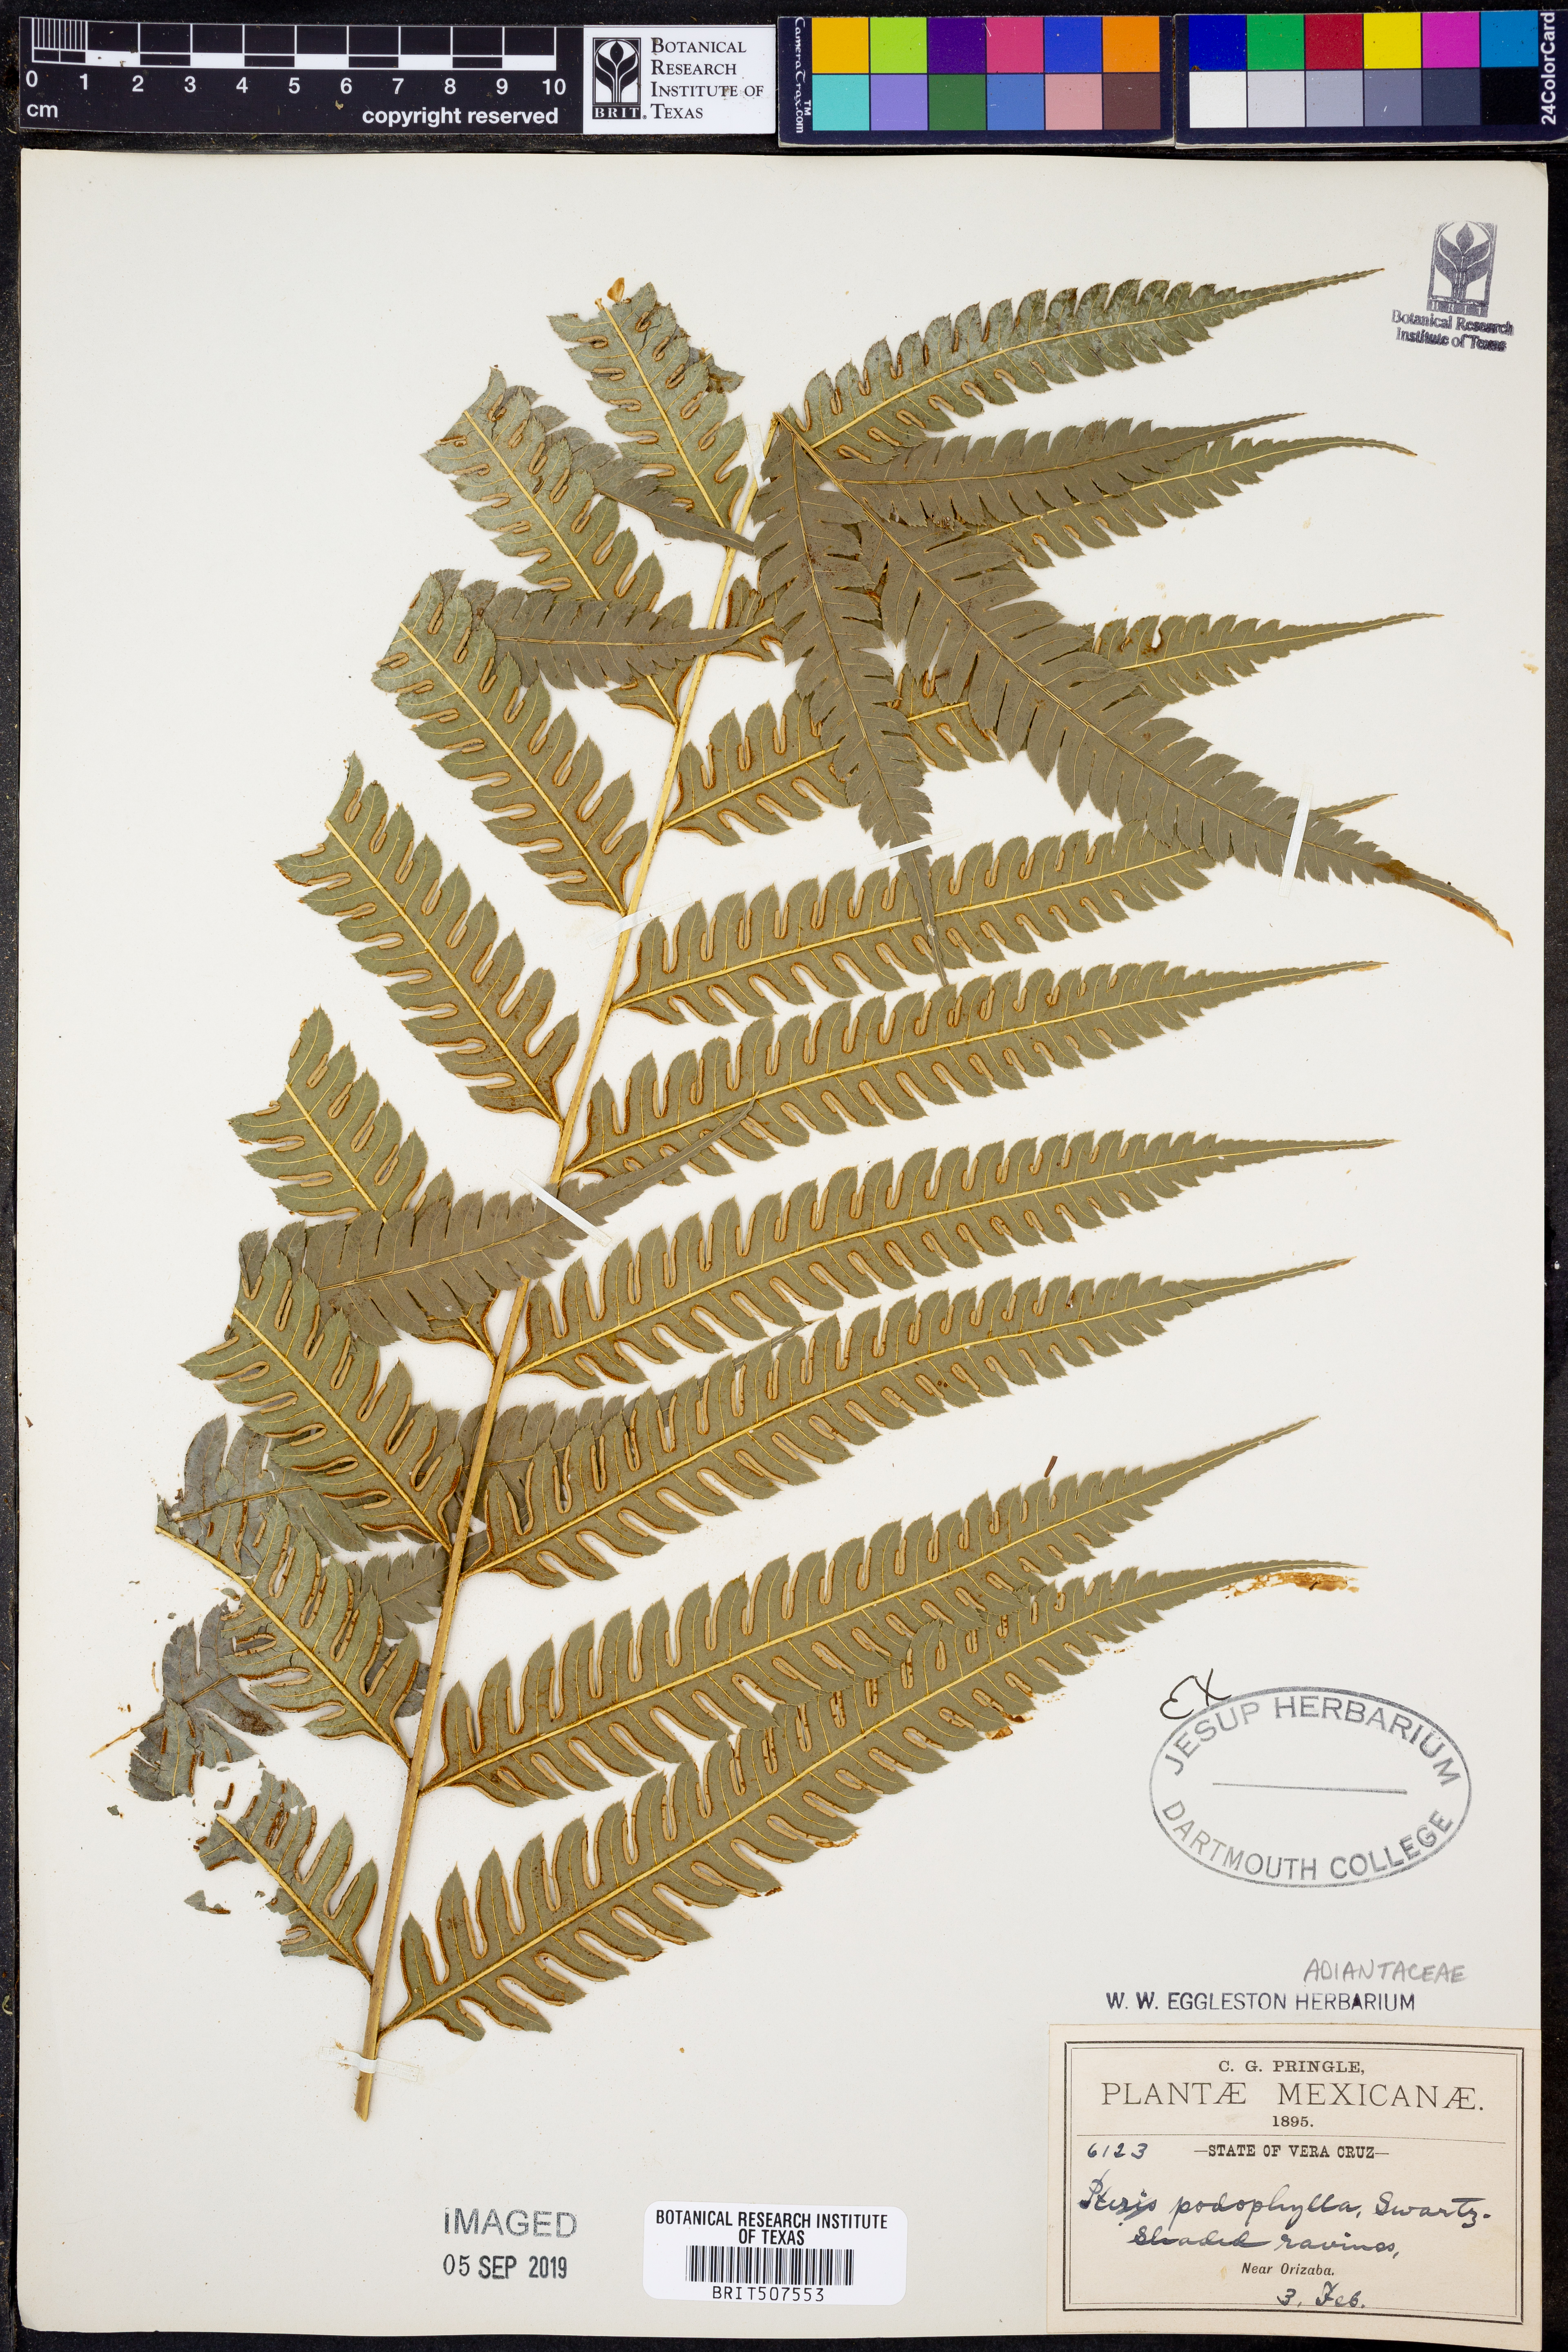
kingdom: Plantae
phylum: Tracheophyta
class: Polypodiopsida
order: Polypodiales
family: Pteridaceae
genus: Pteris
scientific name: Pteris podophylla
